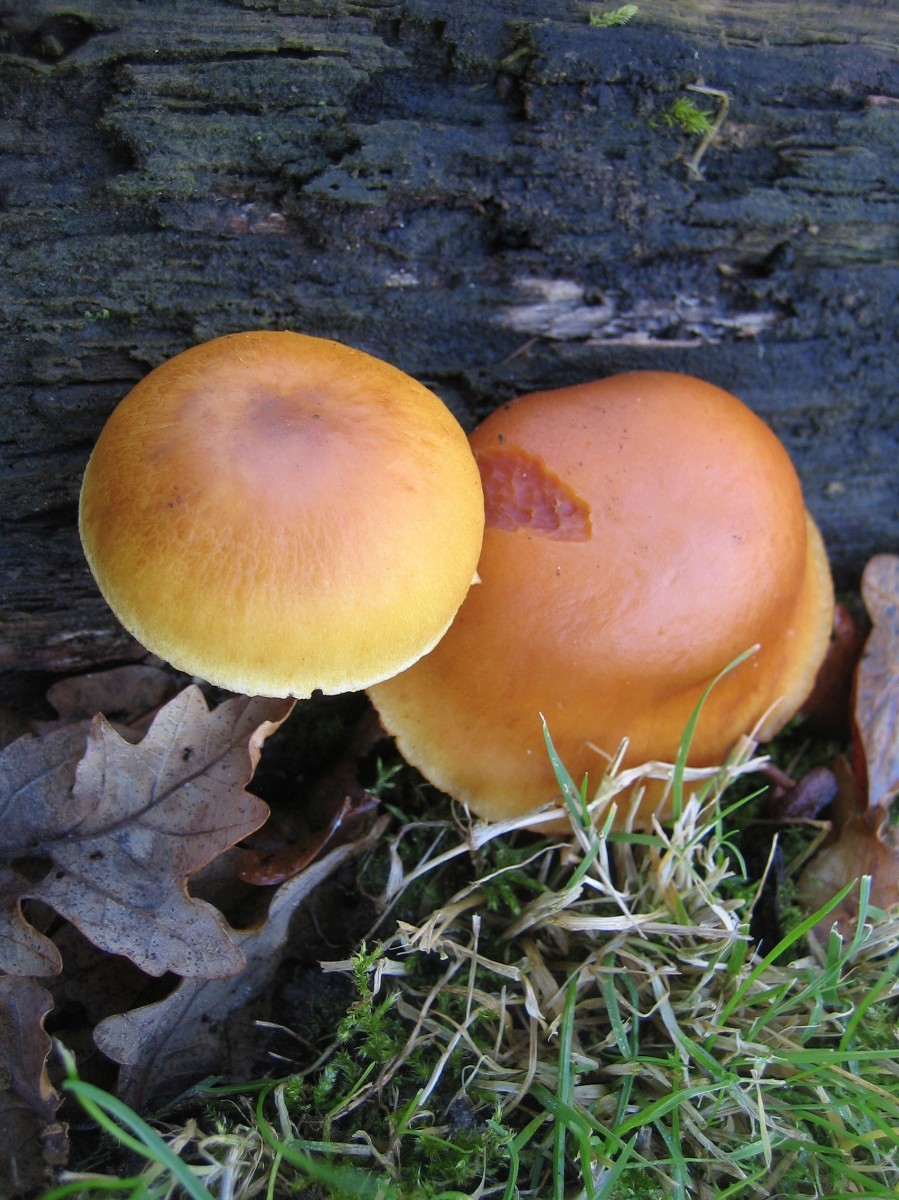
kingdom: Fungi
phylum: Basidiomycota
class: Agaricomycetes
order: Agaricales
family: Hymenogastraceae
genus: Gymnopilus
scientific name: Gymnopilus penetrans
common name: plettet flammehat
